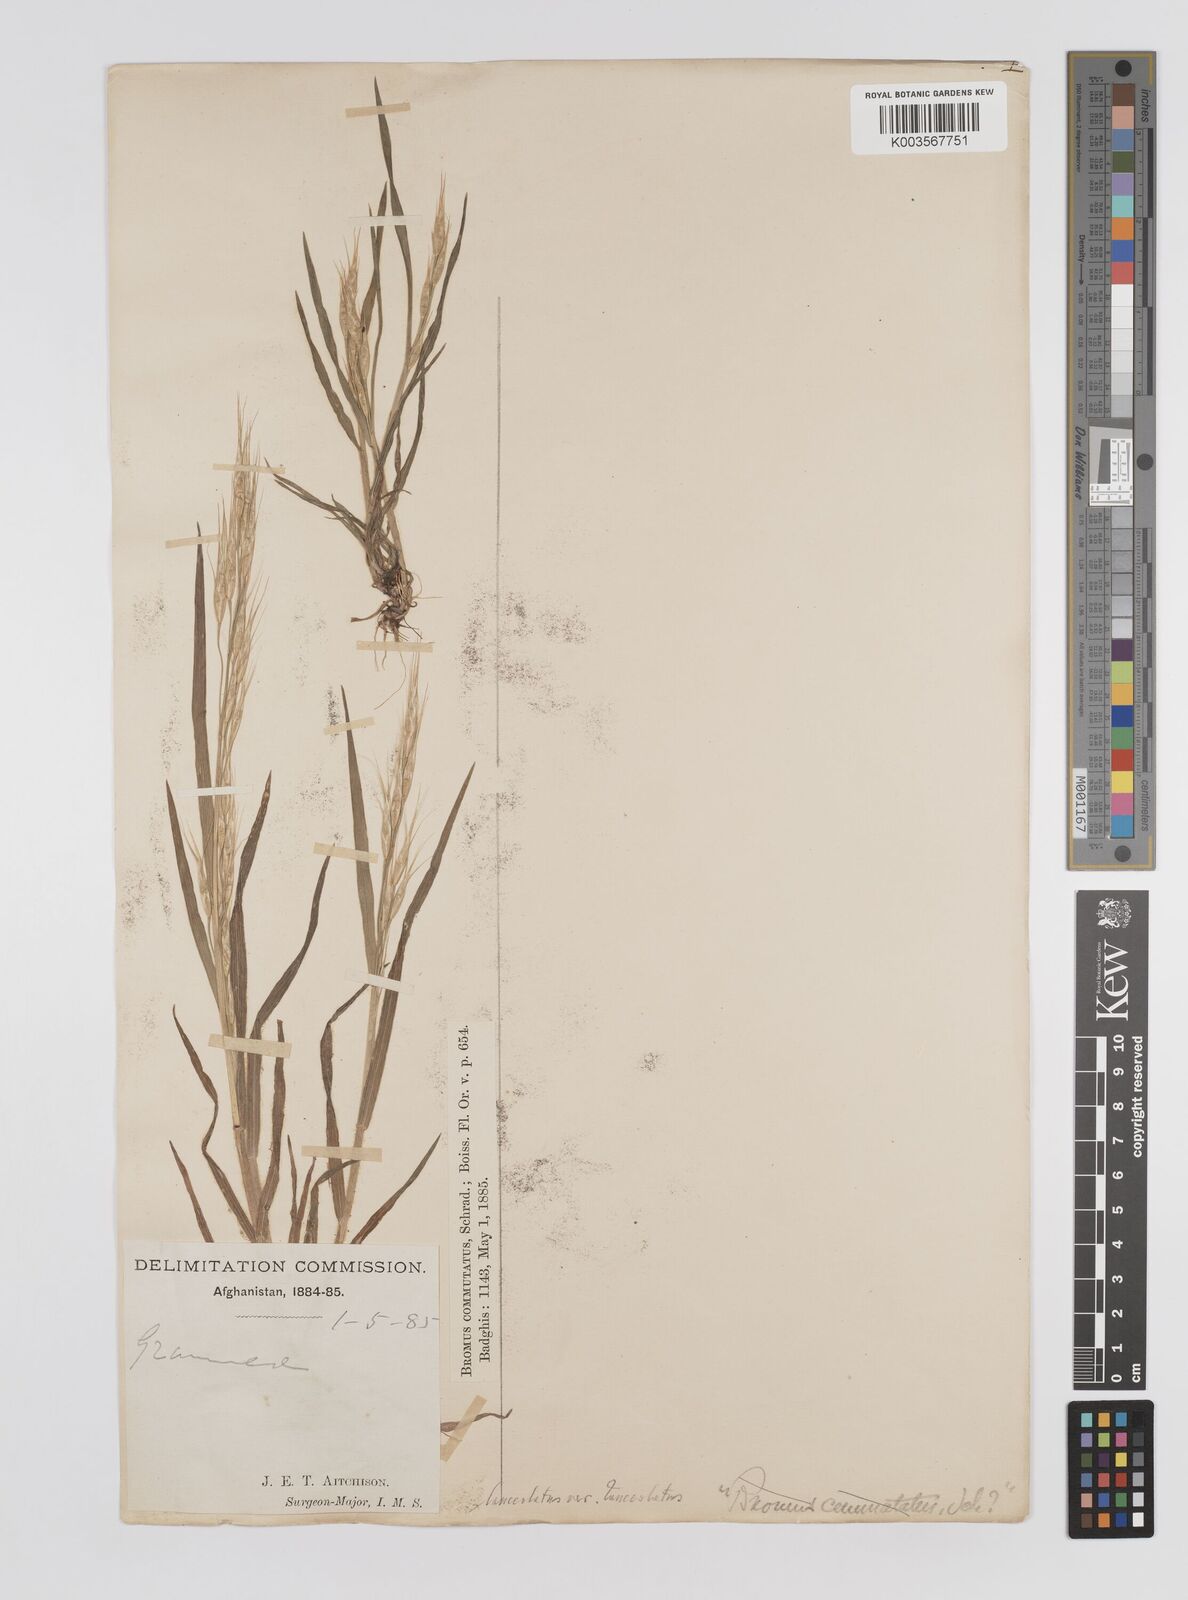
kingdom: Plantae
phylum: Tracheophyta
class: Liliopsida
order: Poales
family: Poaceae
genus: Bromus
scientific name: Bromus
